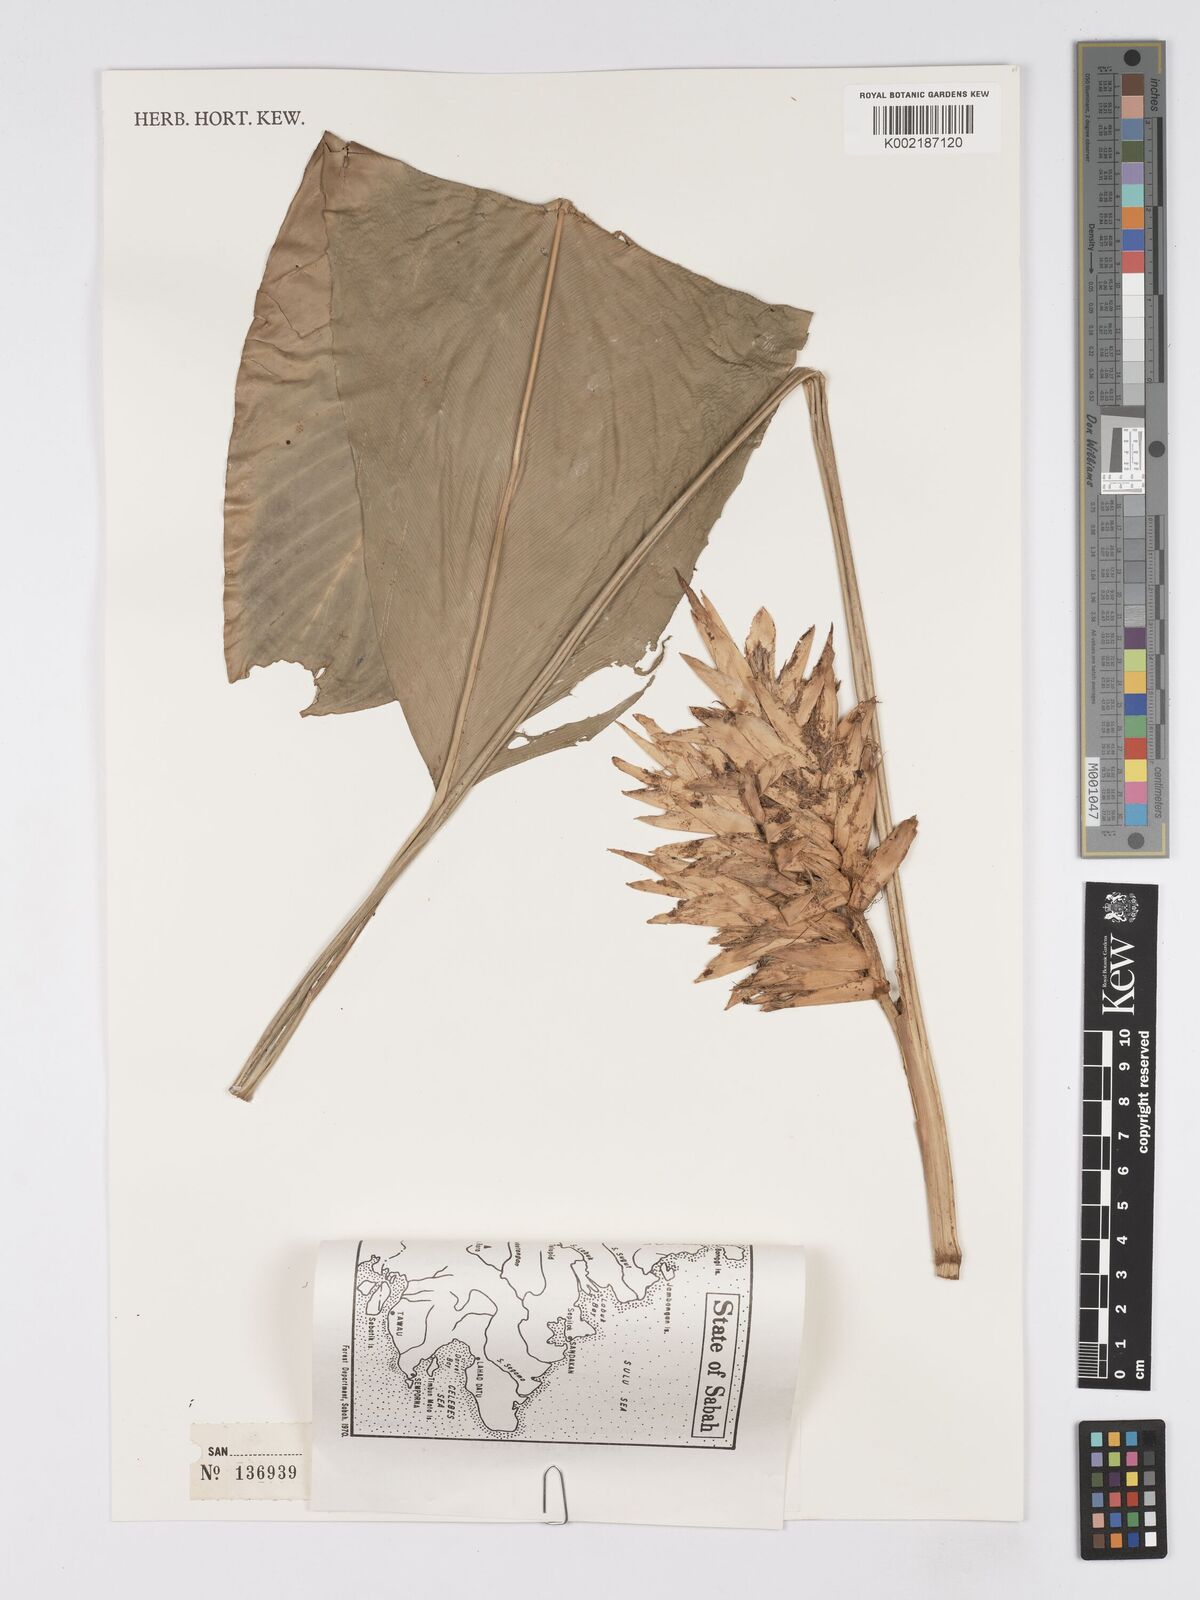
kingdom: Plantae
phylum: Tracheophyta
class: Liliopsida
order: Zingiberales
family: Marantaceae
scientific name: Marantaceae
